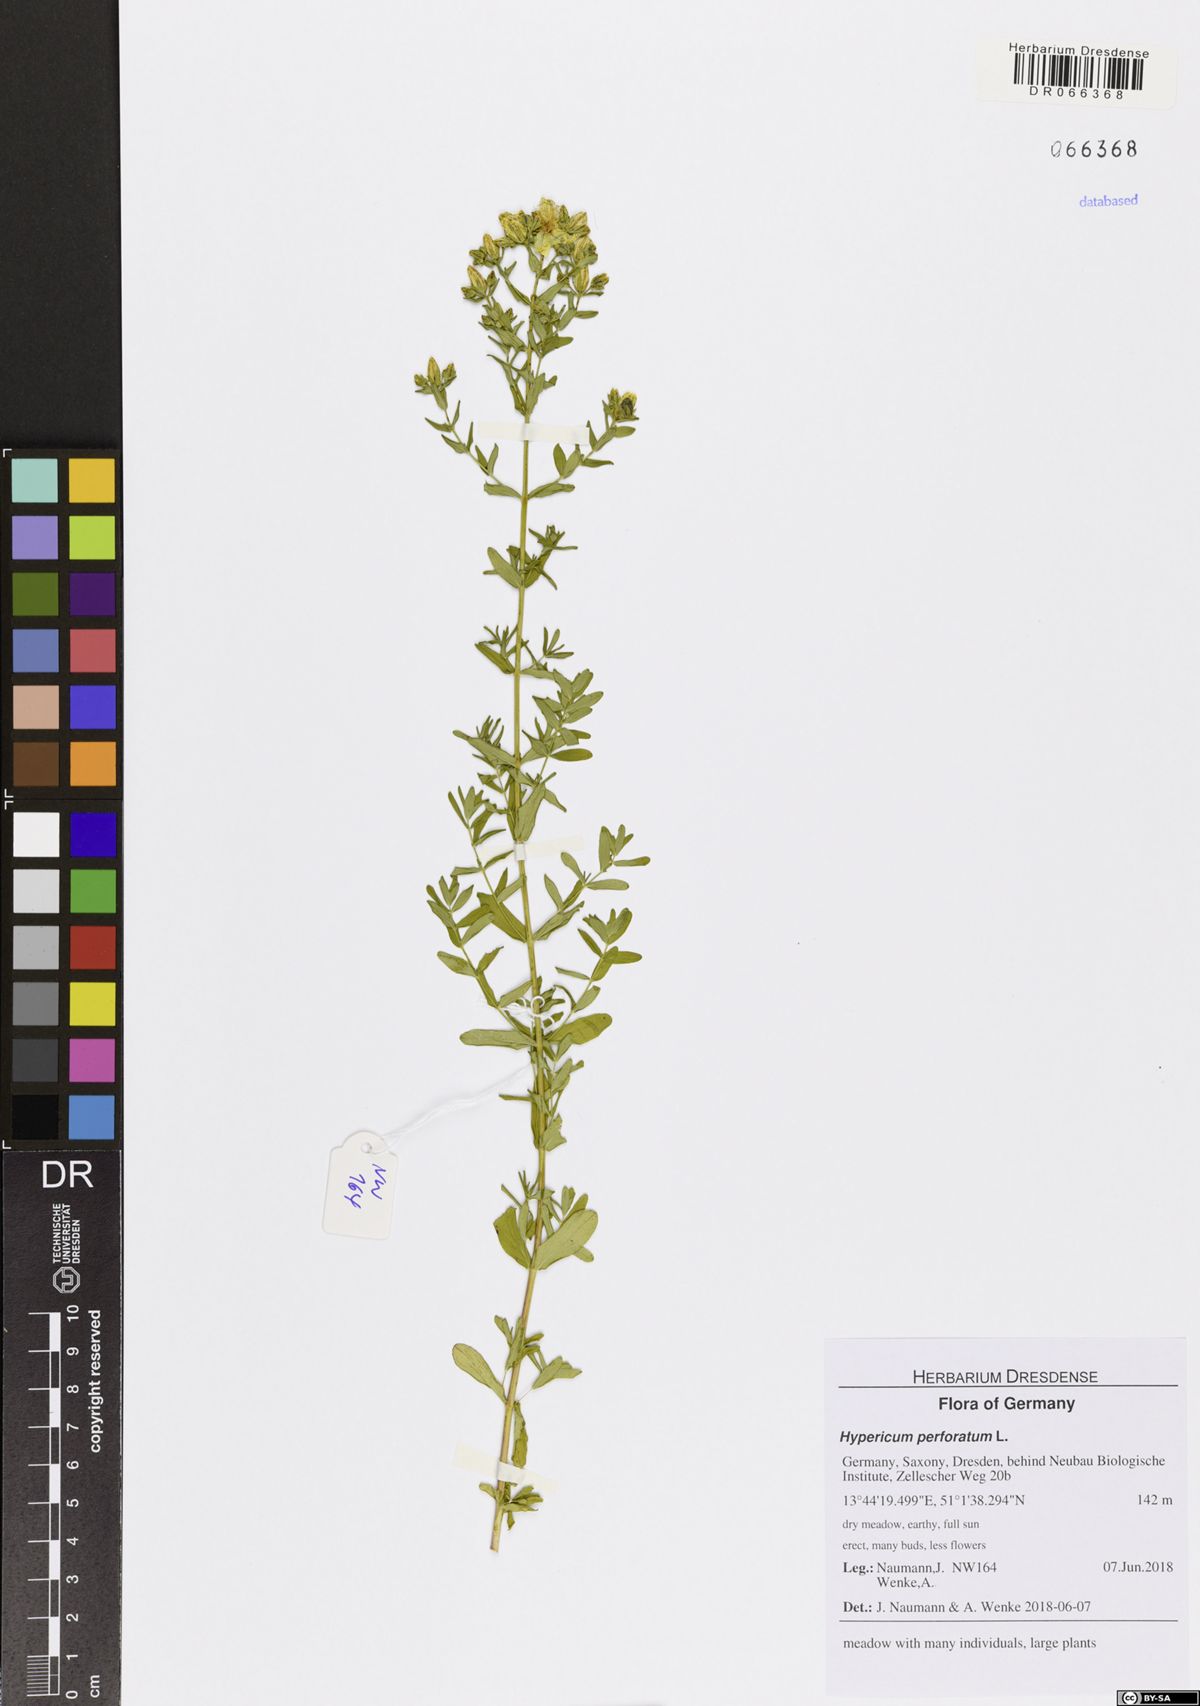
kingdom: Plantae
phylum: Tracheophyta
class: Magnoliopsida
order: Malpighiales
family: Hypericaceae
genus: Hypericum
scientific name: Hypericum perforatum
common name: Common st. johnswort
